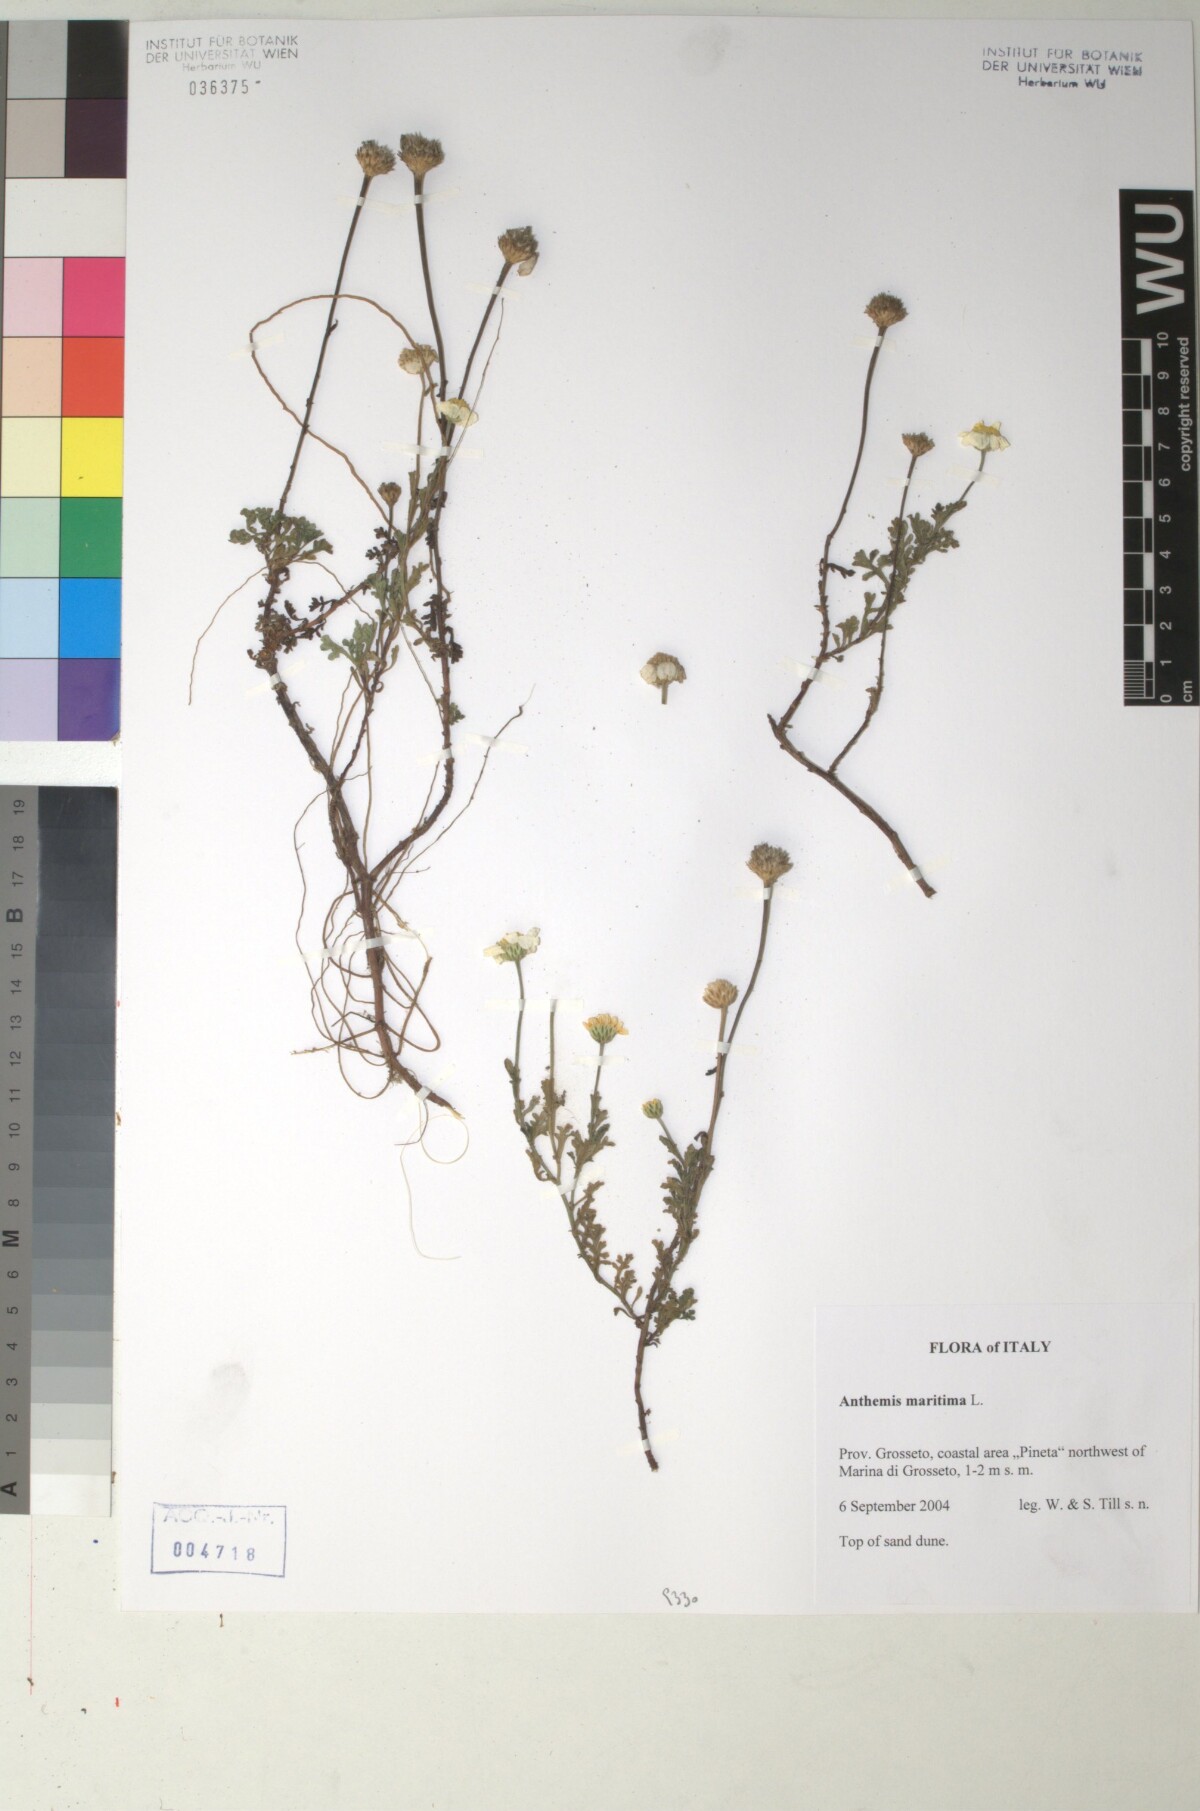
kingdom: Plantae
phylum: Tracheophyta
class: Magnoliopsida
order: Asterales
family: Asteraceae
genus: Anthemis
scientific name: Anthemis maritima
